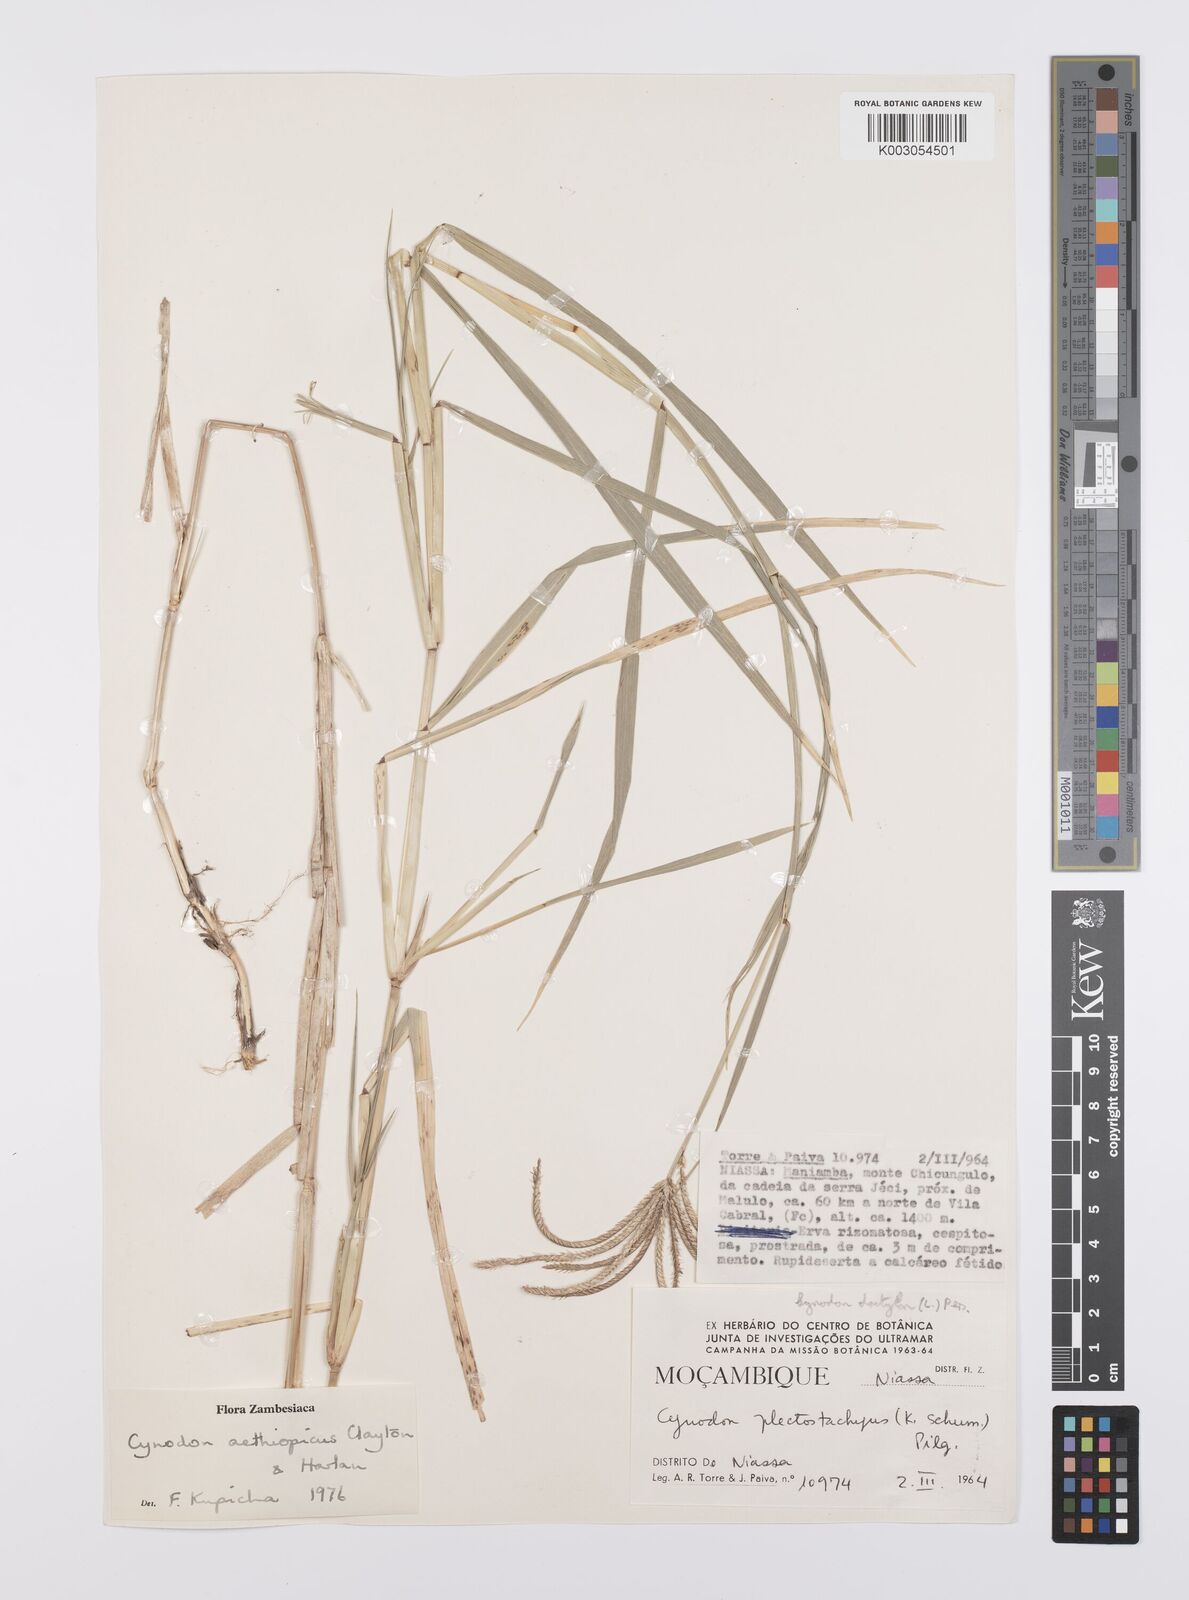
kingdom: Plantae
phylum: Tracheophyta
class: Liliopsida
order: Poales
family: Poaceae
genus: Cynodon
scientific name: Cynodon aethiopicus
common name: Ethiopian dogstooth grass
